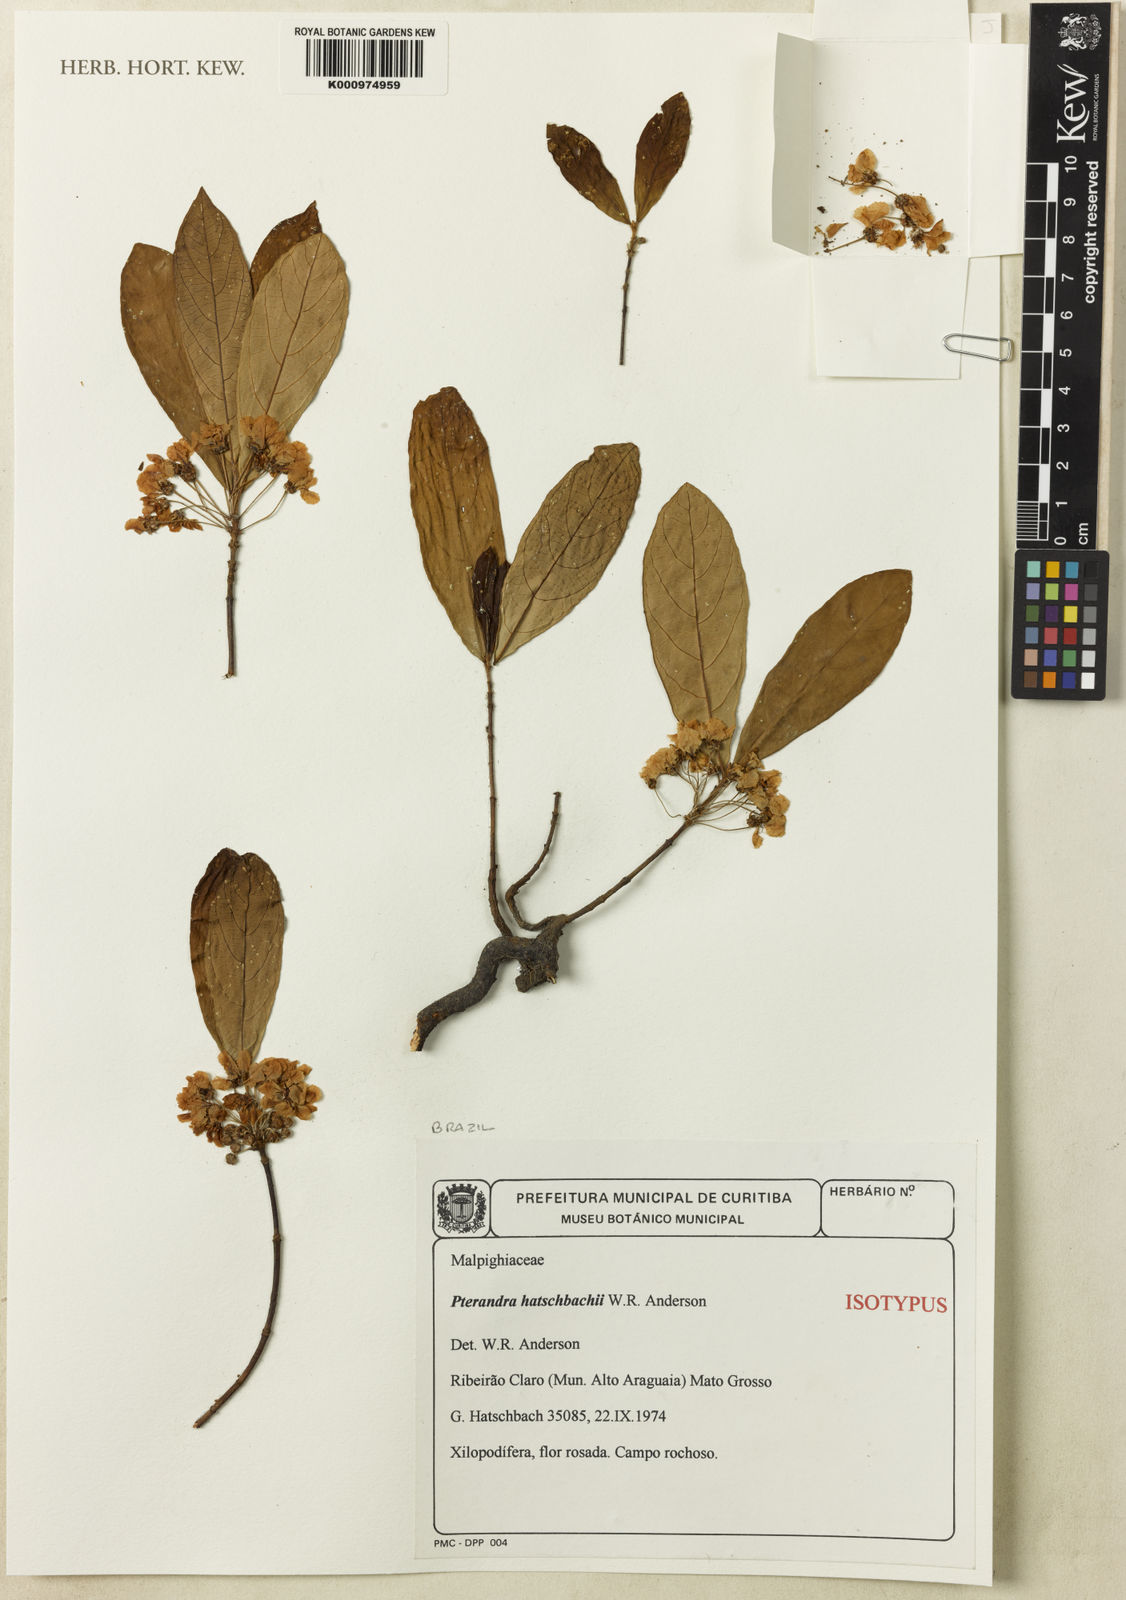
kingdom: Plantae
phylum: Tracheophyta
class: Magnoliopsida
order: Malpighiales
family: Malpighiaceae
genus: Pterandra
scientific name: Pterandra hatschbachii
